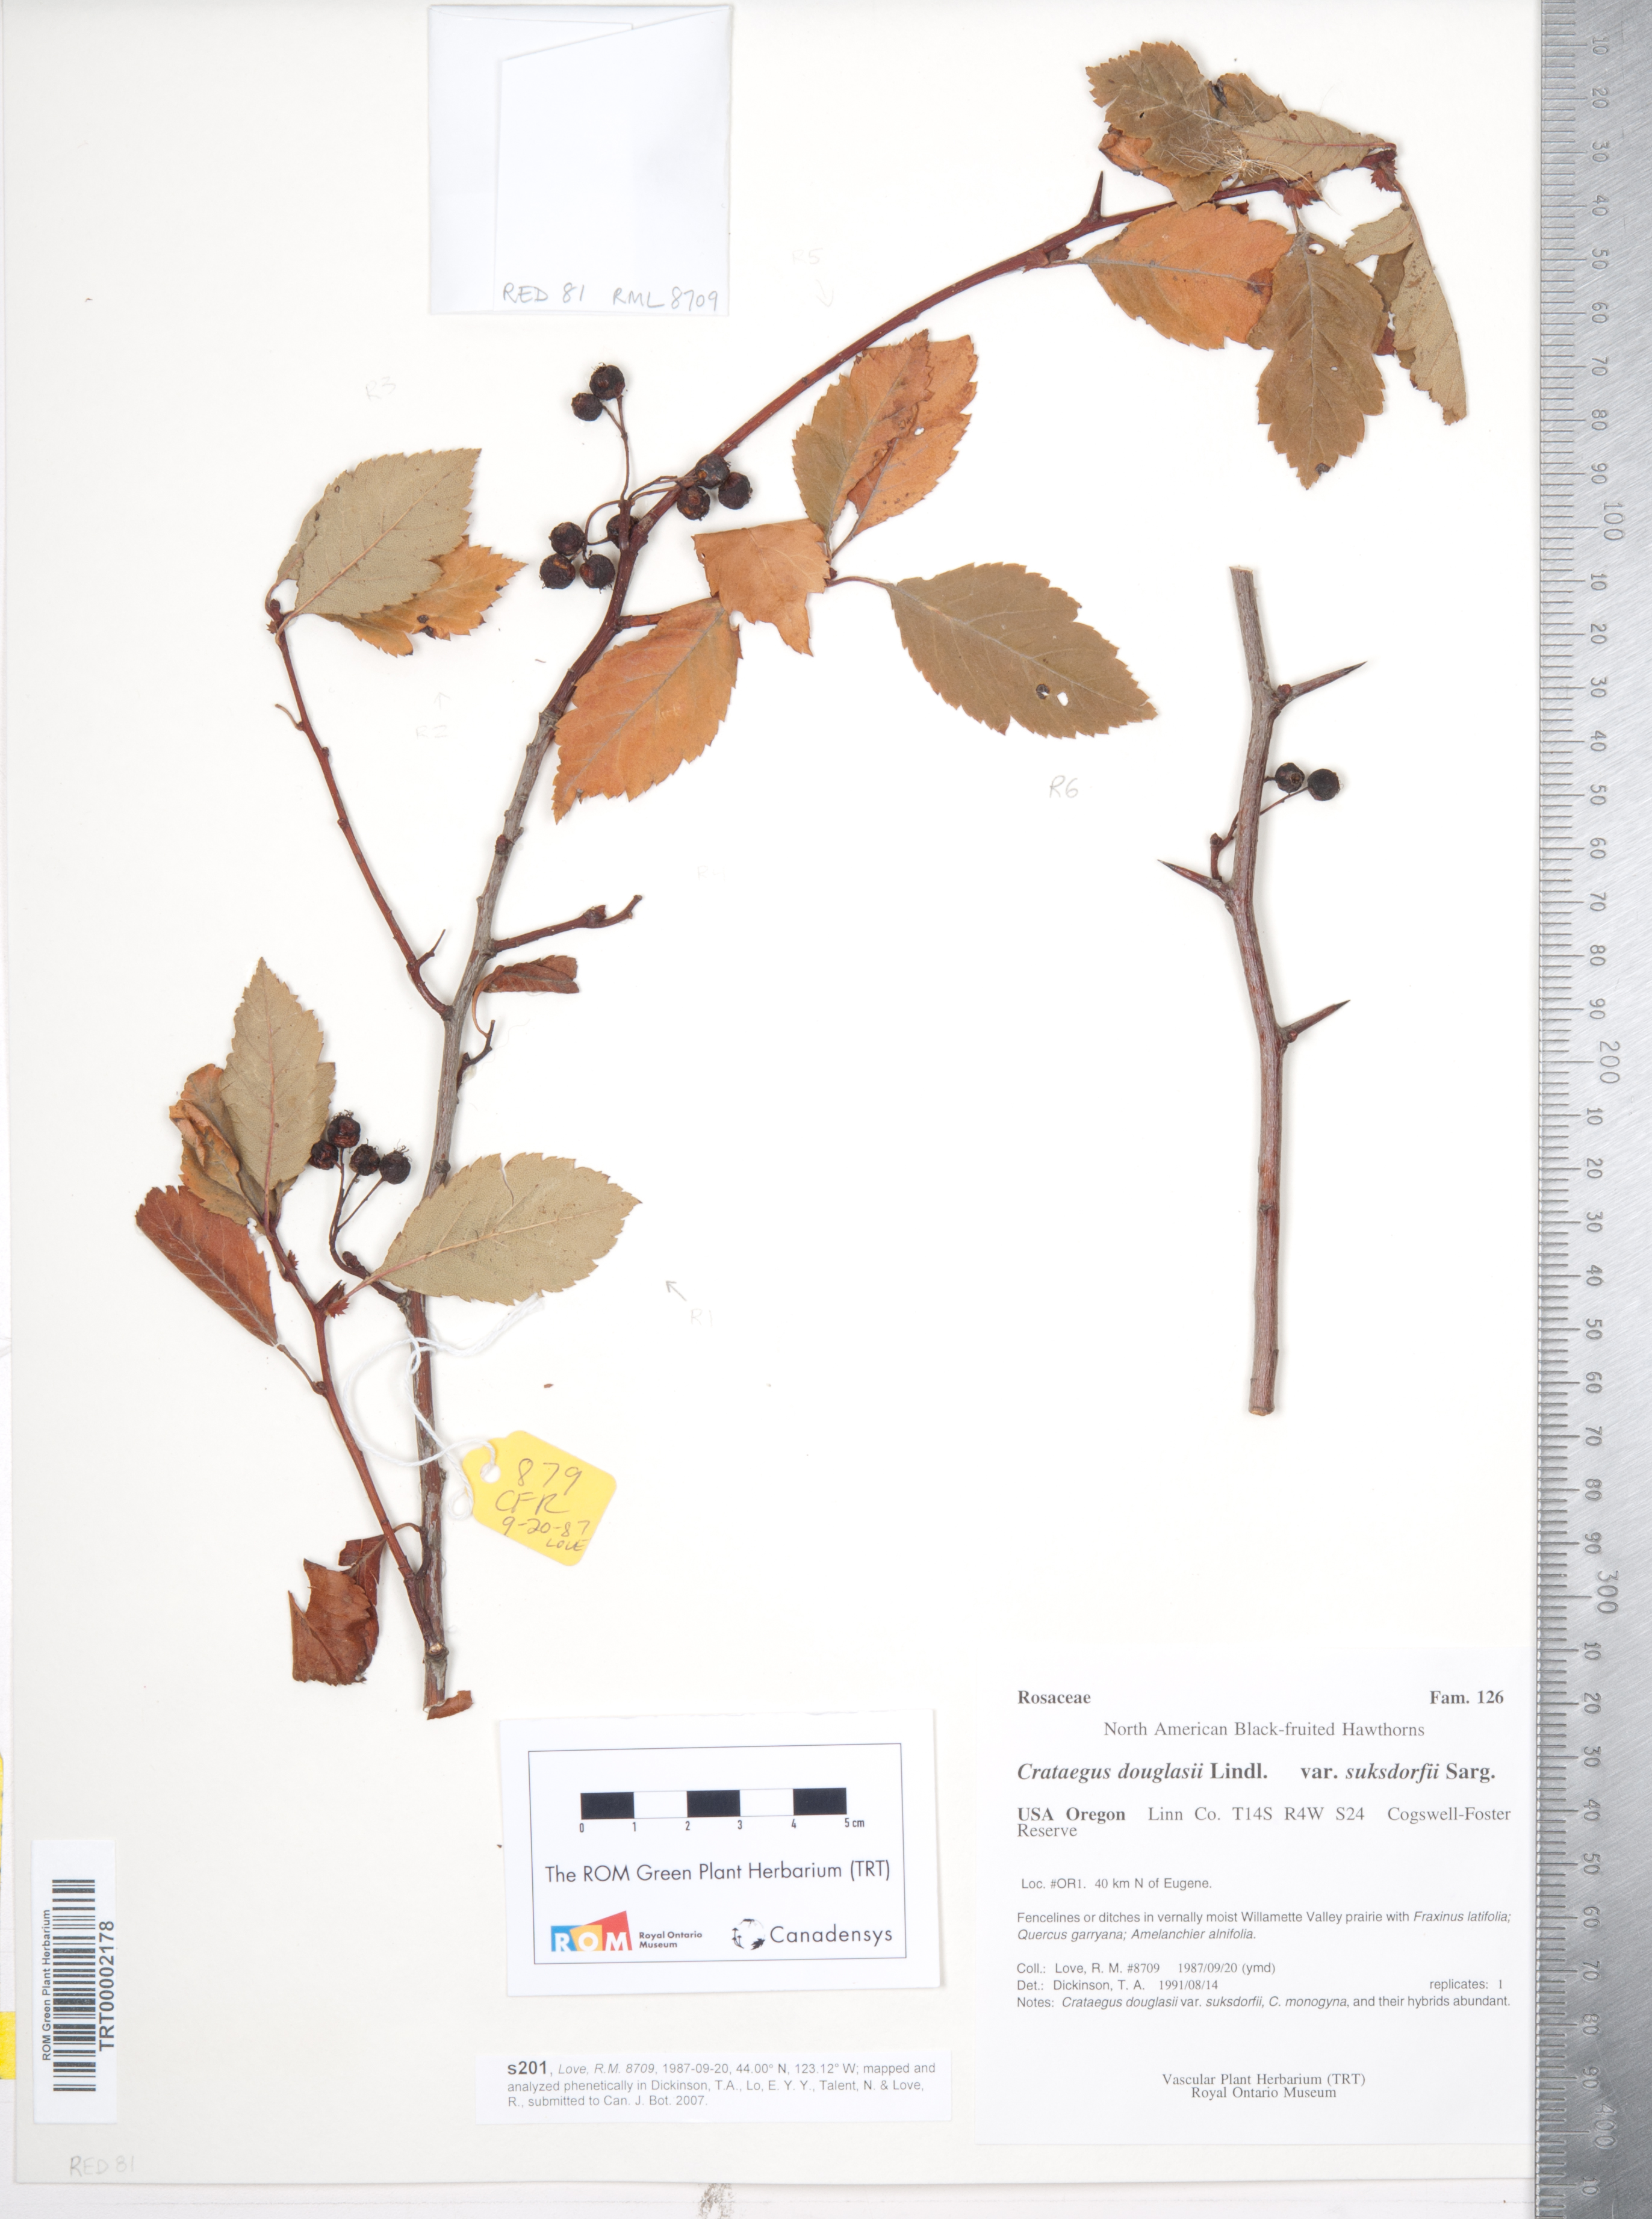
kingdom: Plantae
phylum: Tracheophyta
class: Magnoliopsida
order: Rosales
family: Rosaceae
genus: Crataegus
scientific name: Crataegus gaylussacia
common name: Huckleberry hawthorn
